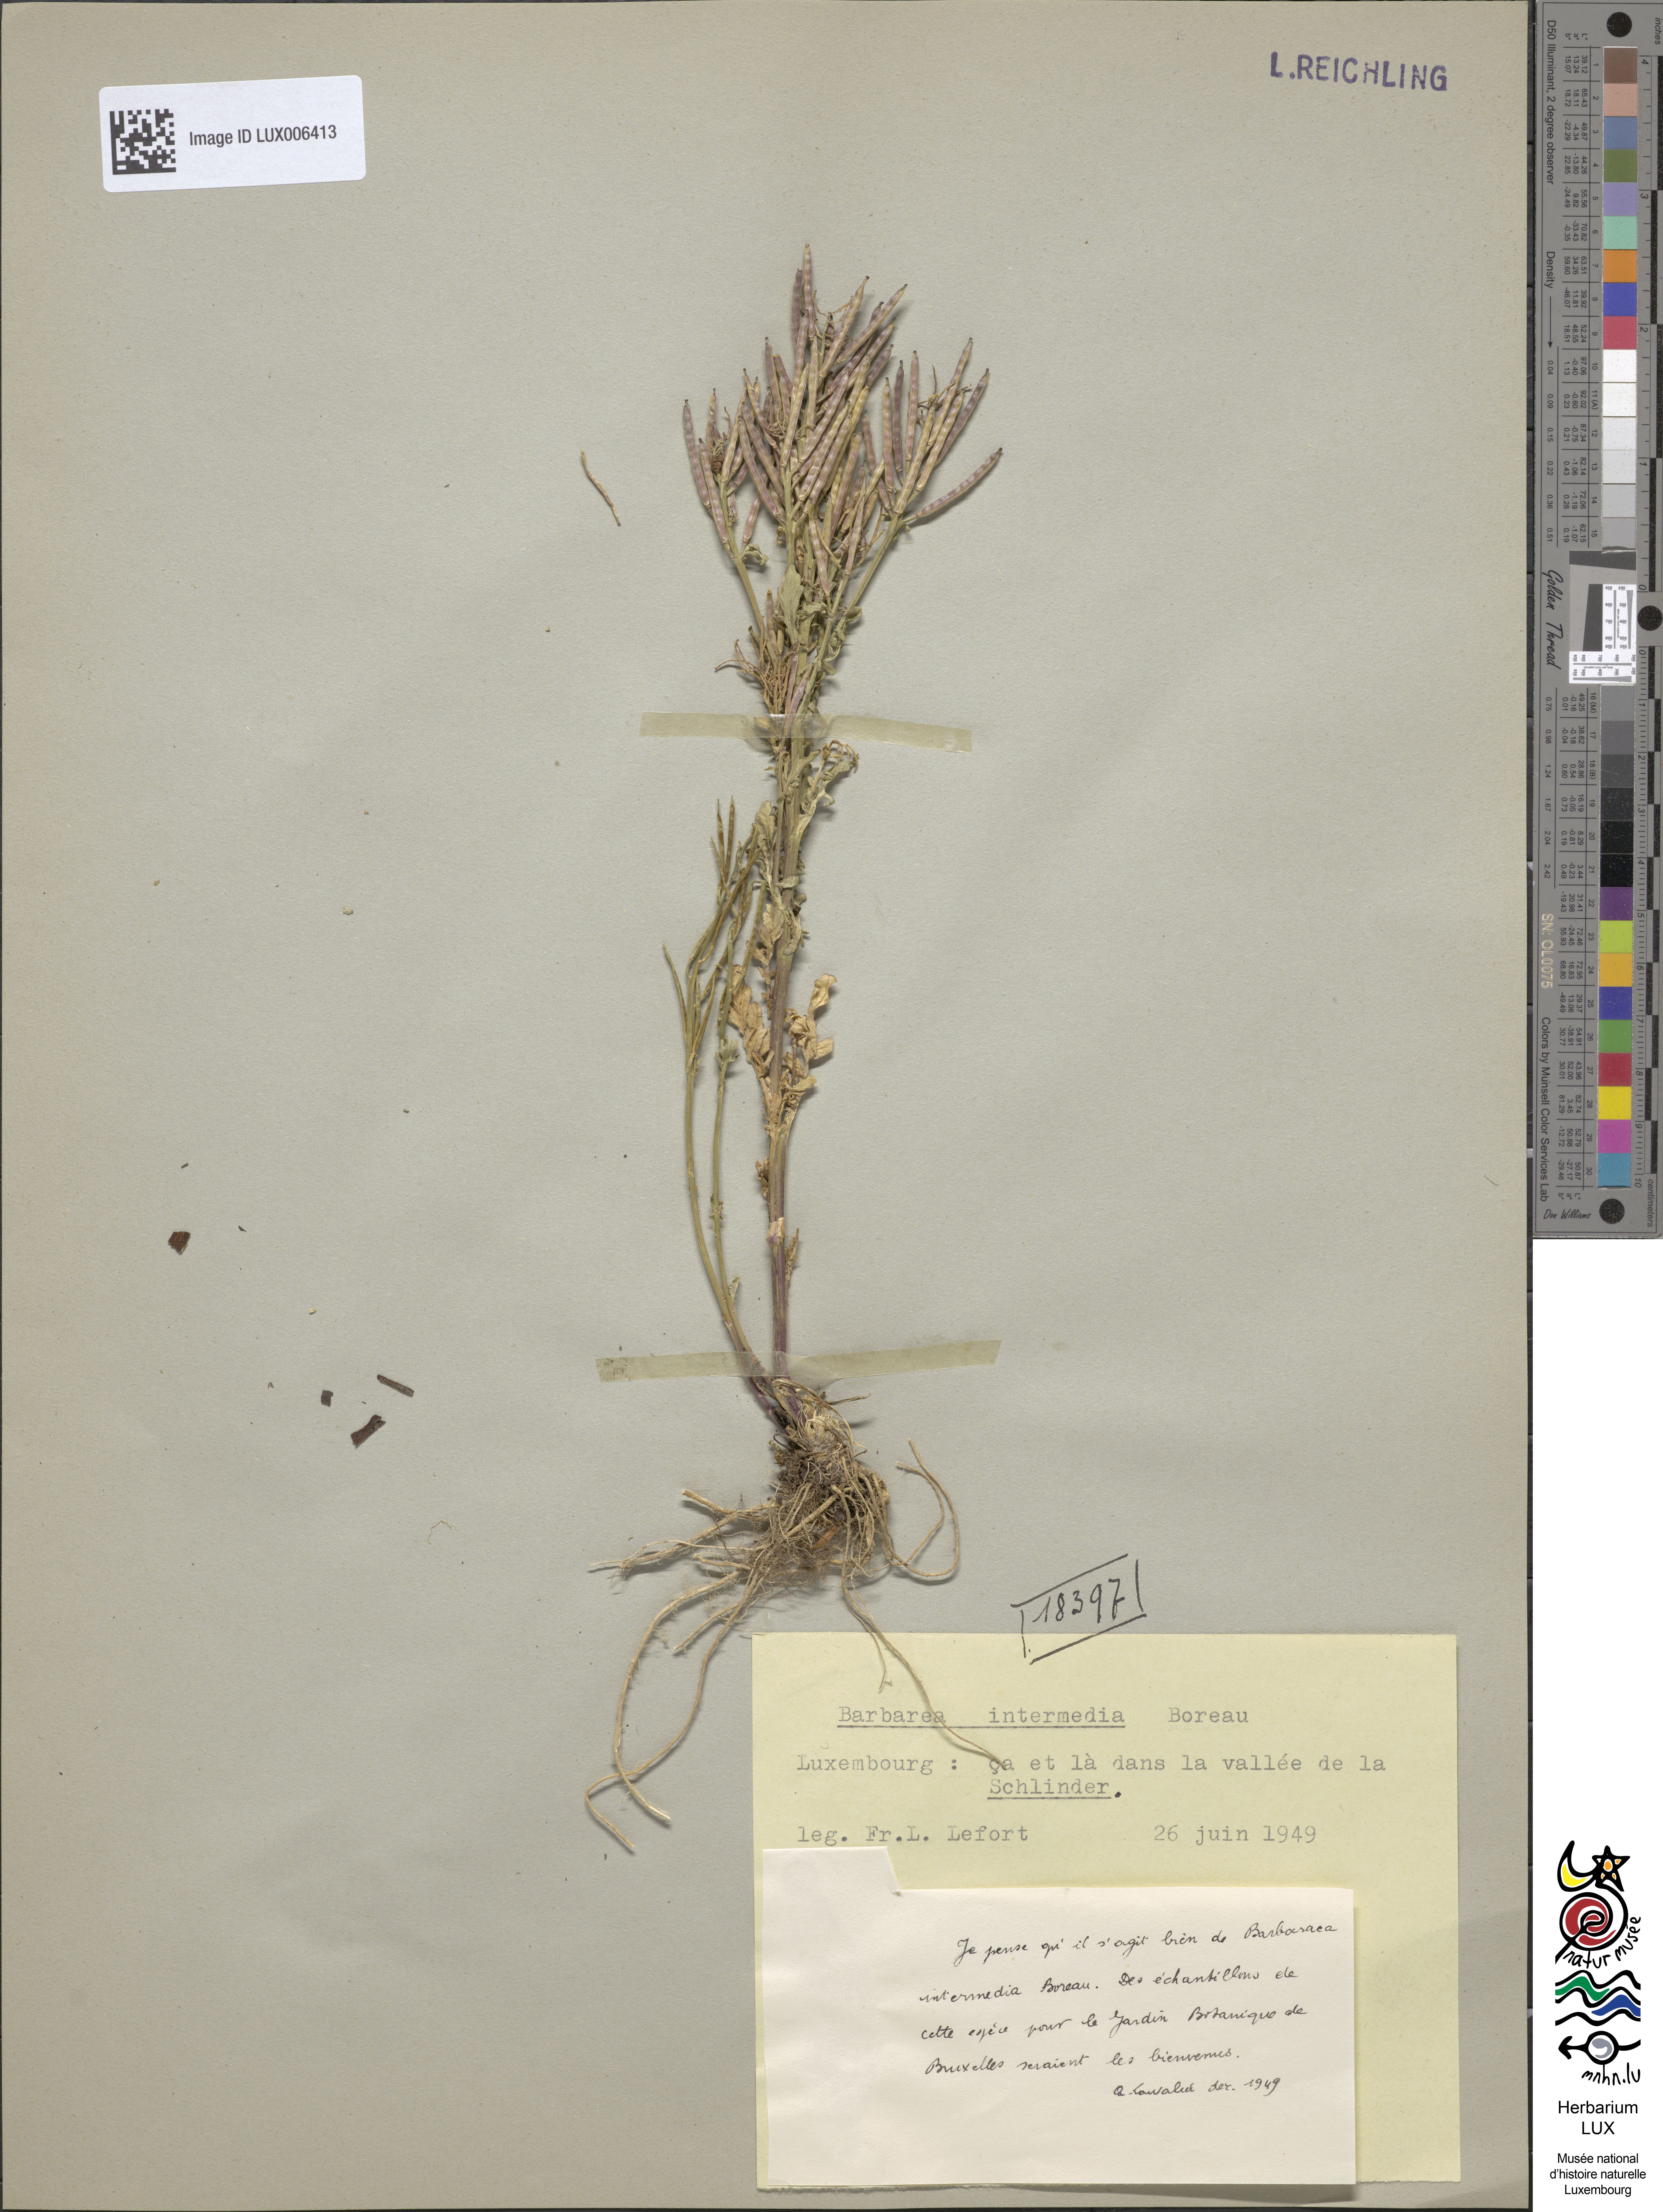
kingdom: Plantae
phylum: Tracheophyta
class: Magnoliopsida
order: Brassicales
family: Brassicaceae
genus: Barbarea
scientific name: Barbarea intermedia
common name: Medium-flowered winter-cress
